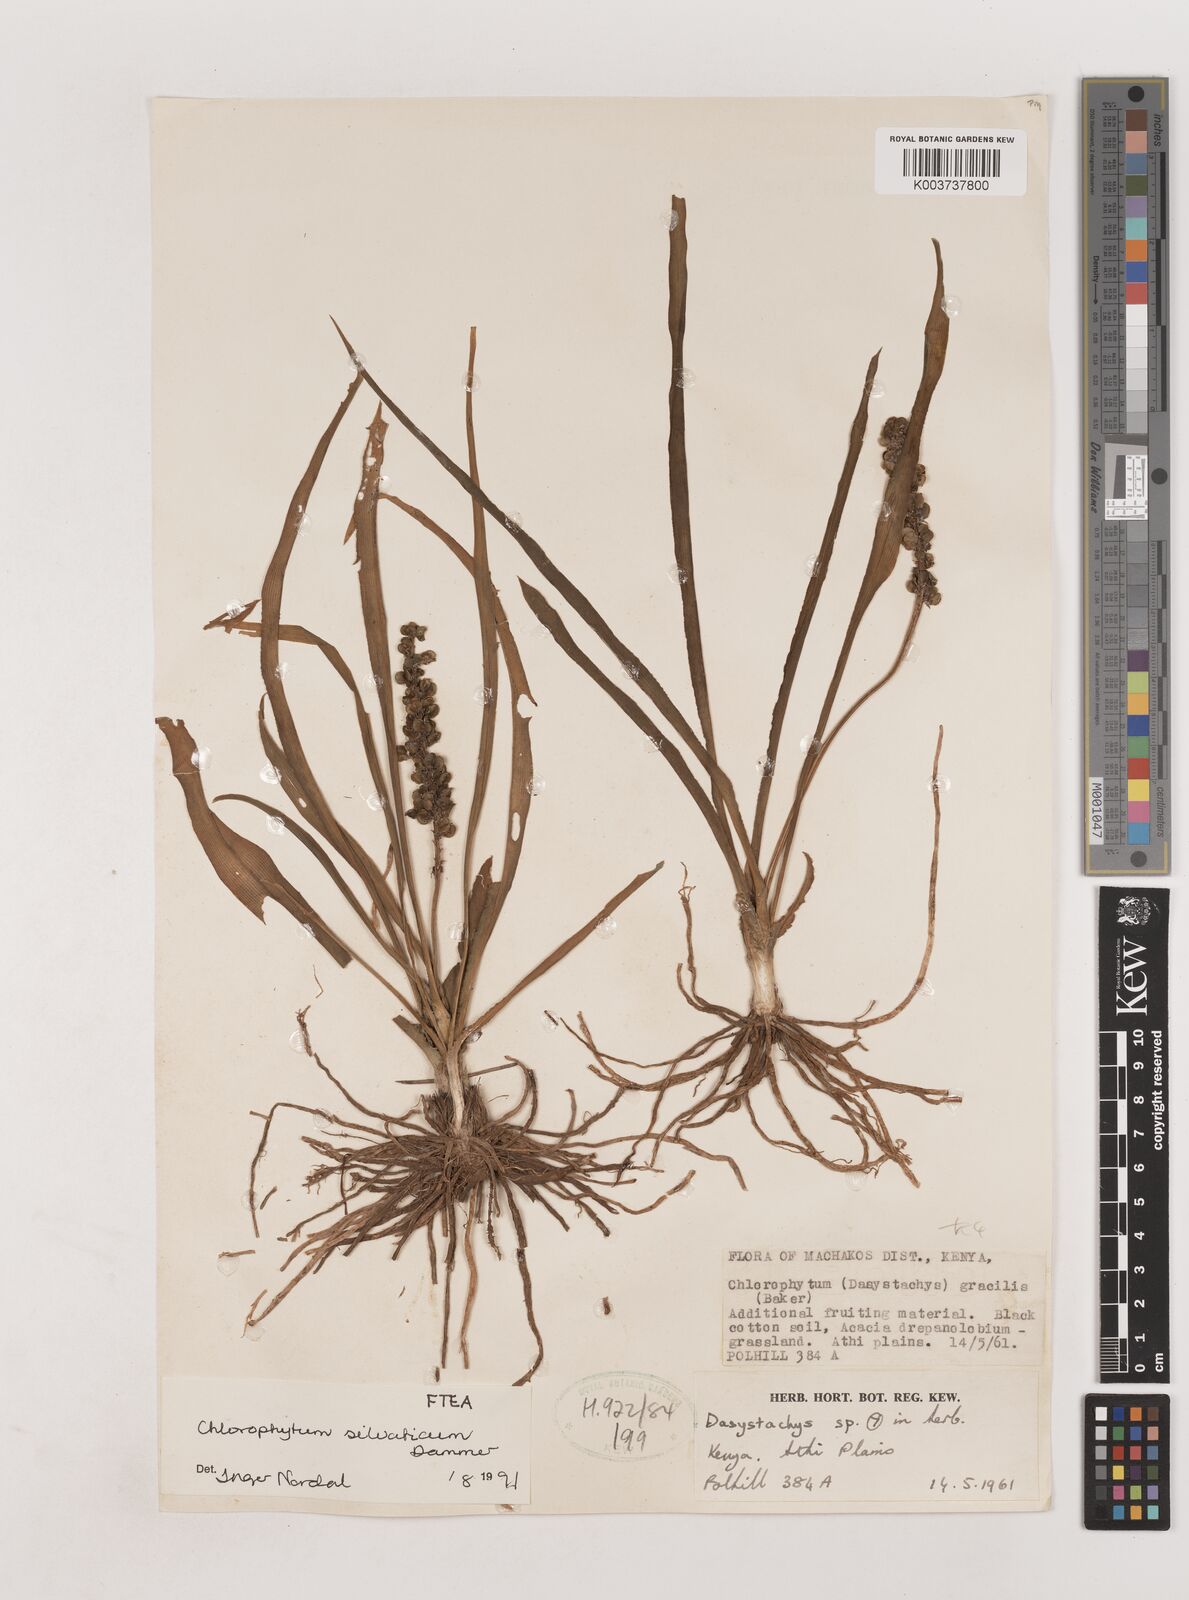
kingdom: Plantae
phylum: Tracheophyta
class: Liliopsida
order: Asparagales
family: Asparagaceae
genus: Chlorophytum
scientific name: Chlorophytum africanum
